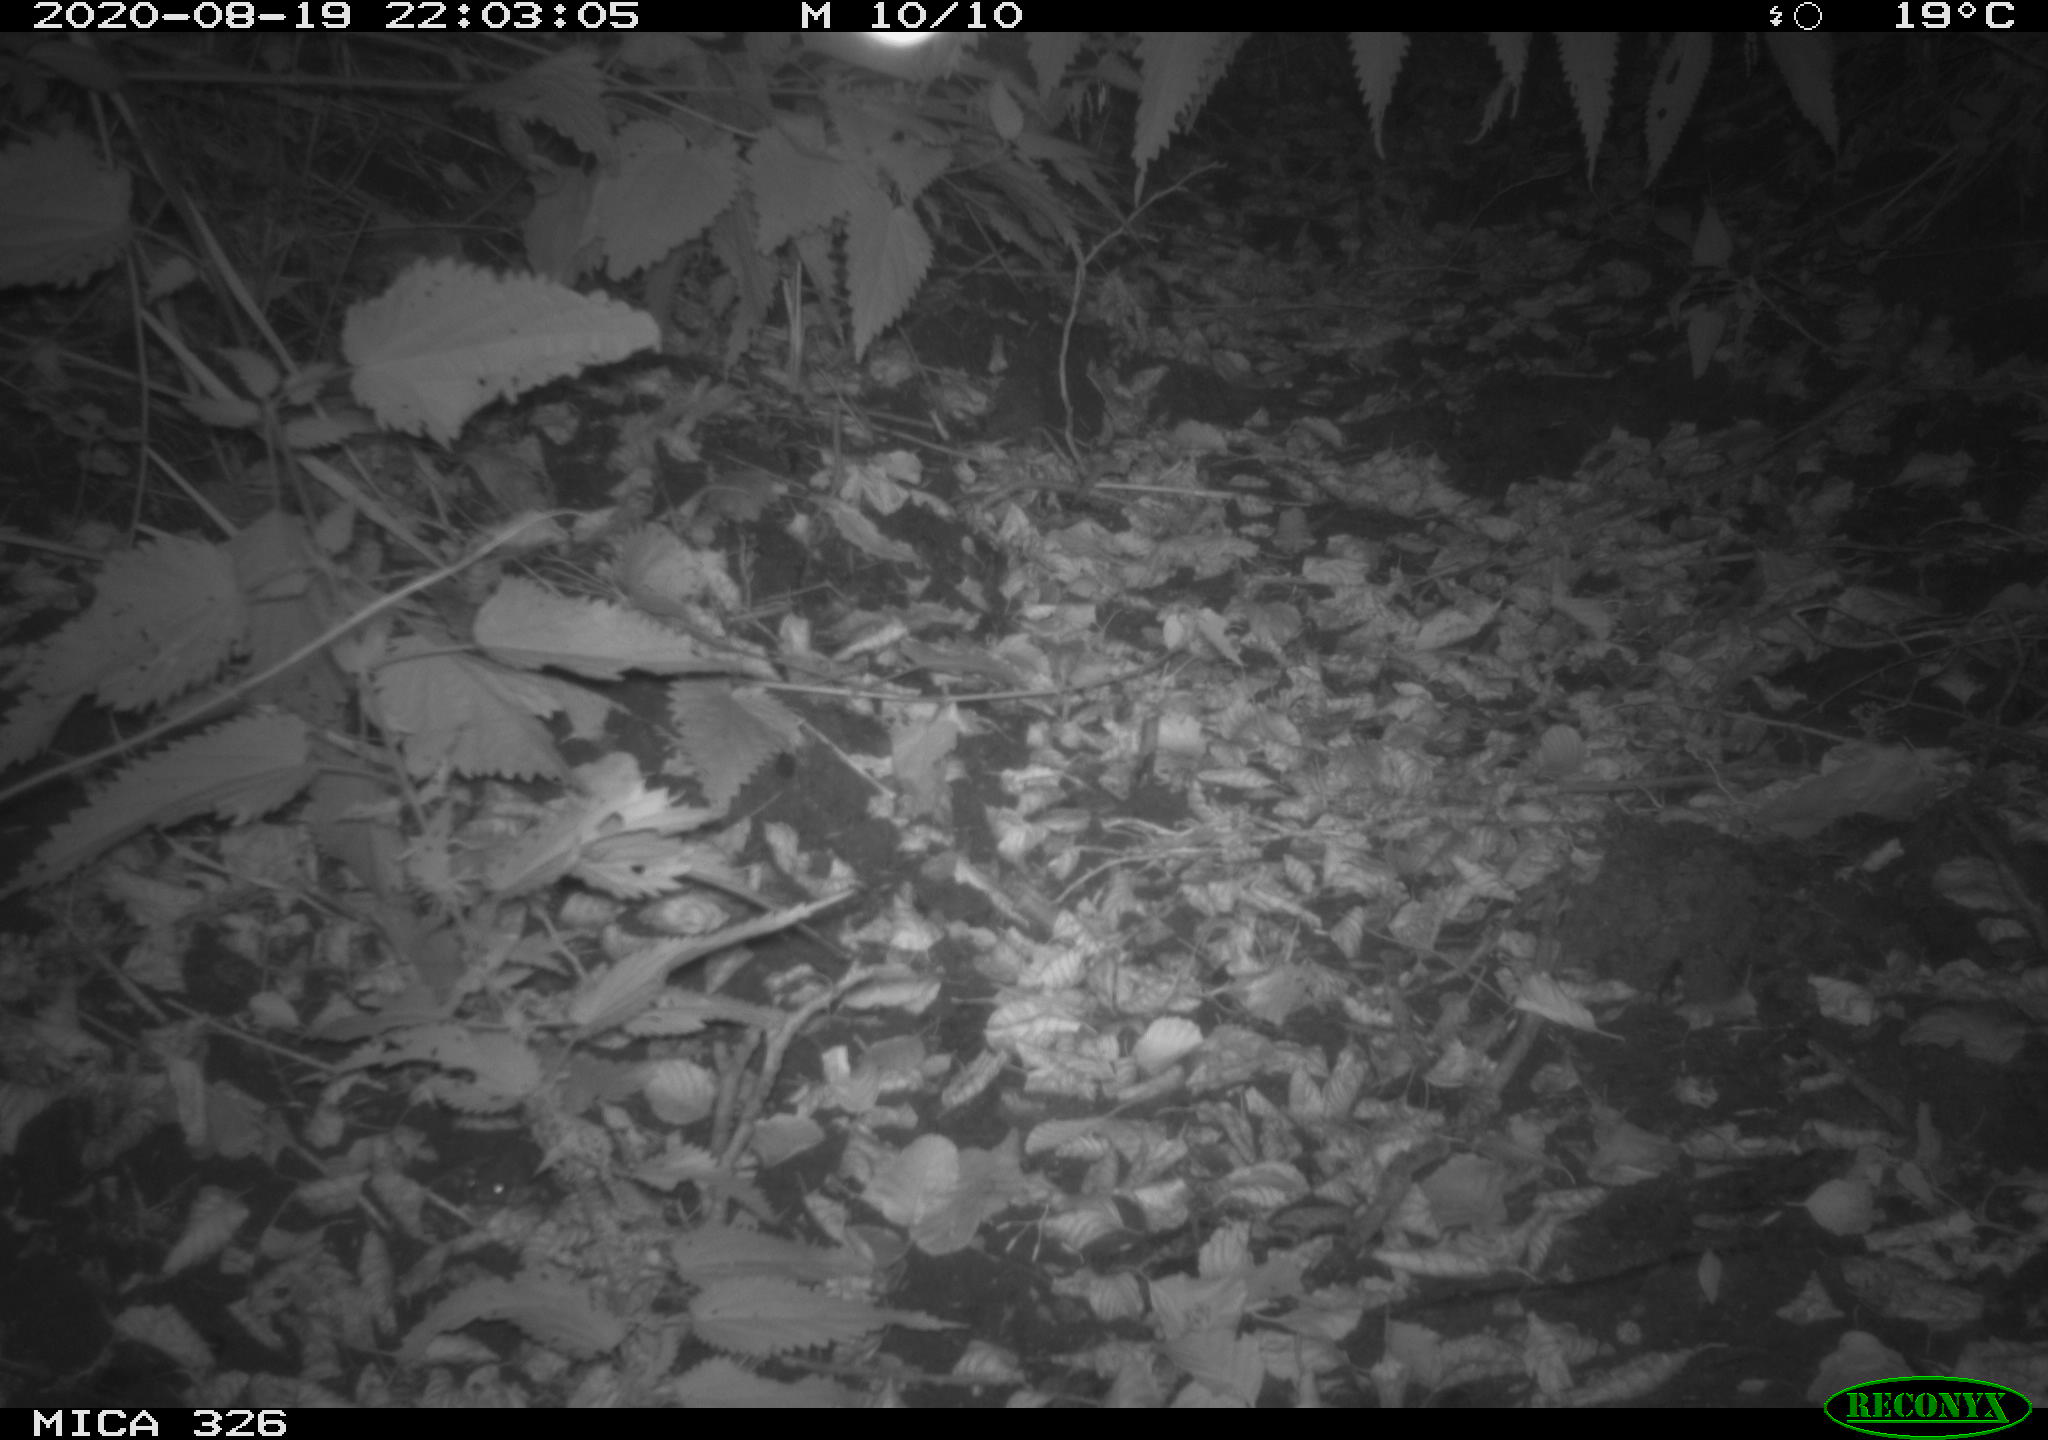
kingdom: Animalia
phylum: Chordata
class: Mammalia
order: Rodentia
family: Muridae
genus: Rattus
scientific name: Rattus norvegicus
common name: Brown rat
